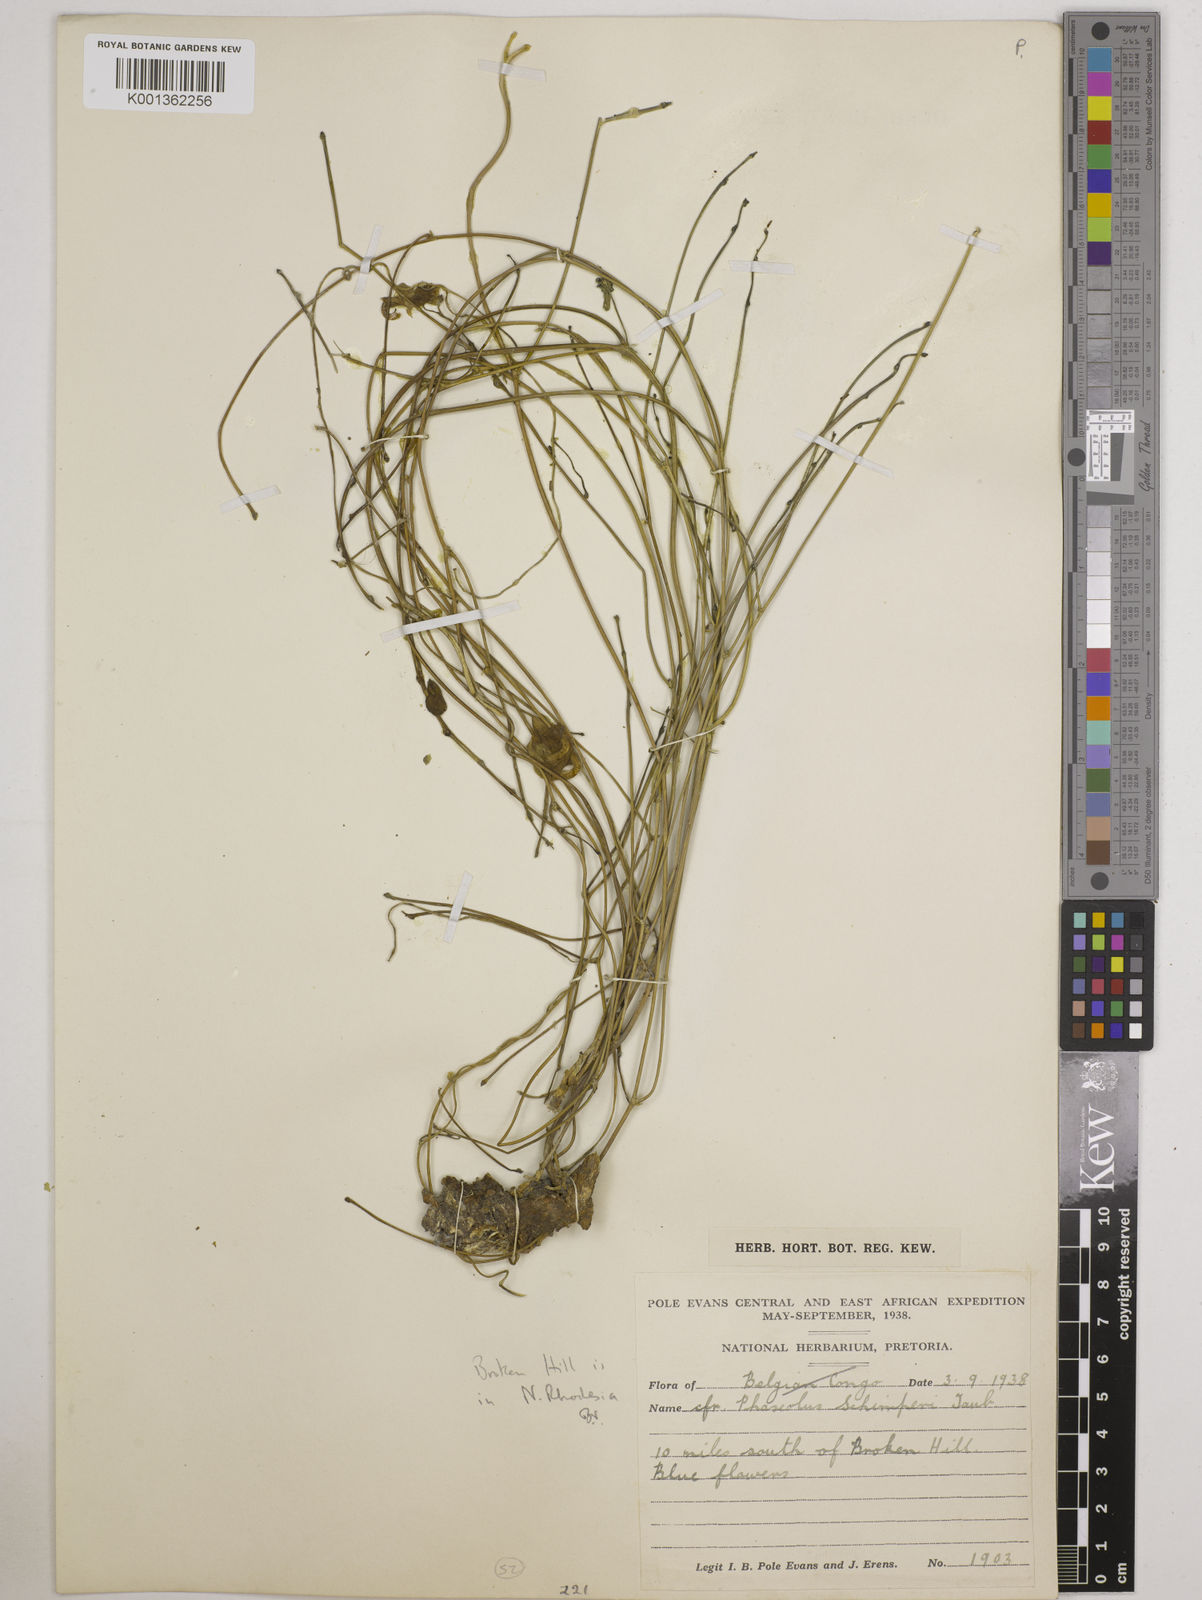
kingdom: Plantae
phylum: Tracheophyta
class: Magnoliopsida
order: Fabales
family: Fabaceae
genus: Wajira
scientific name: Wajira grahamiana
